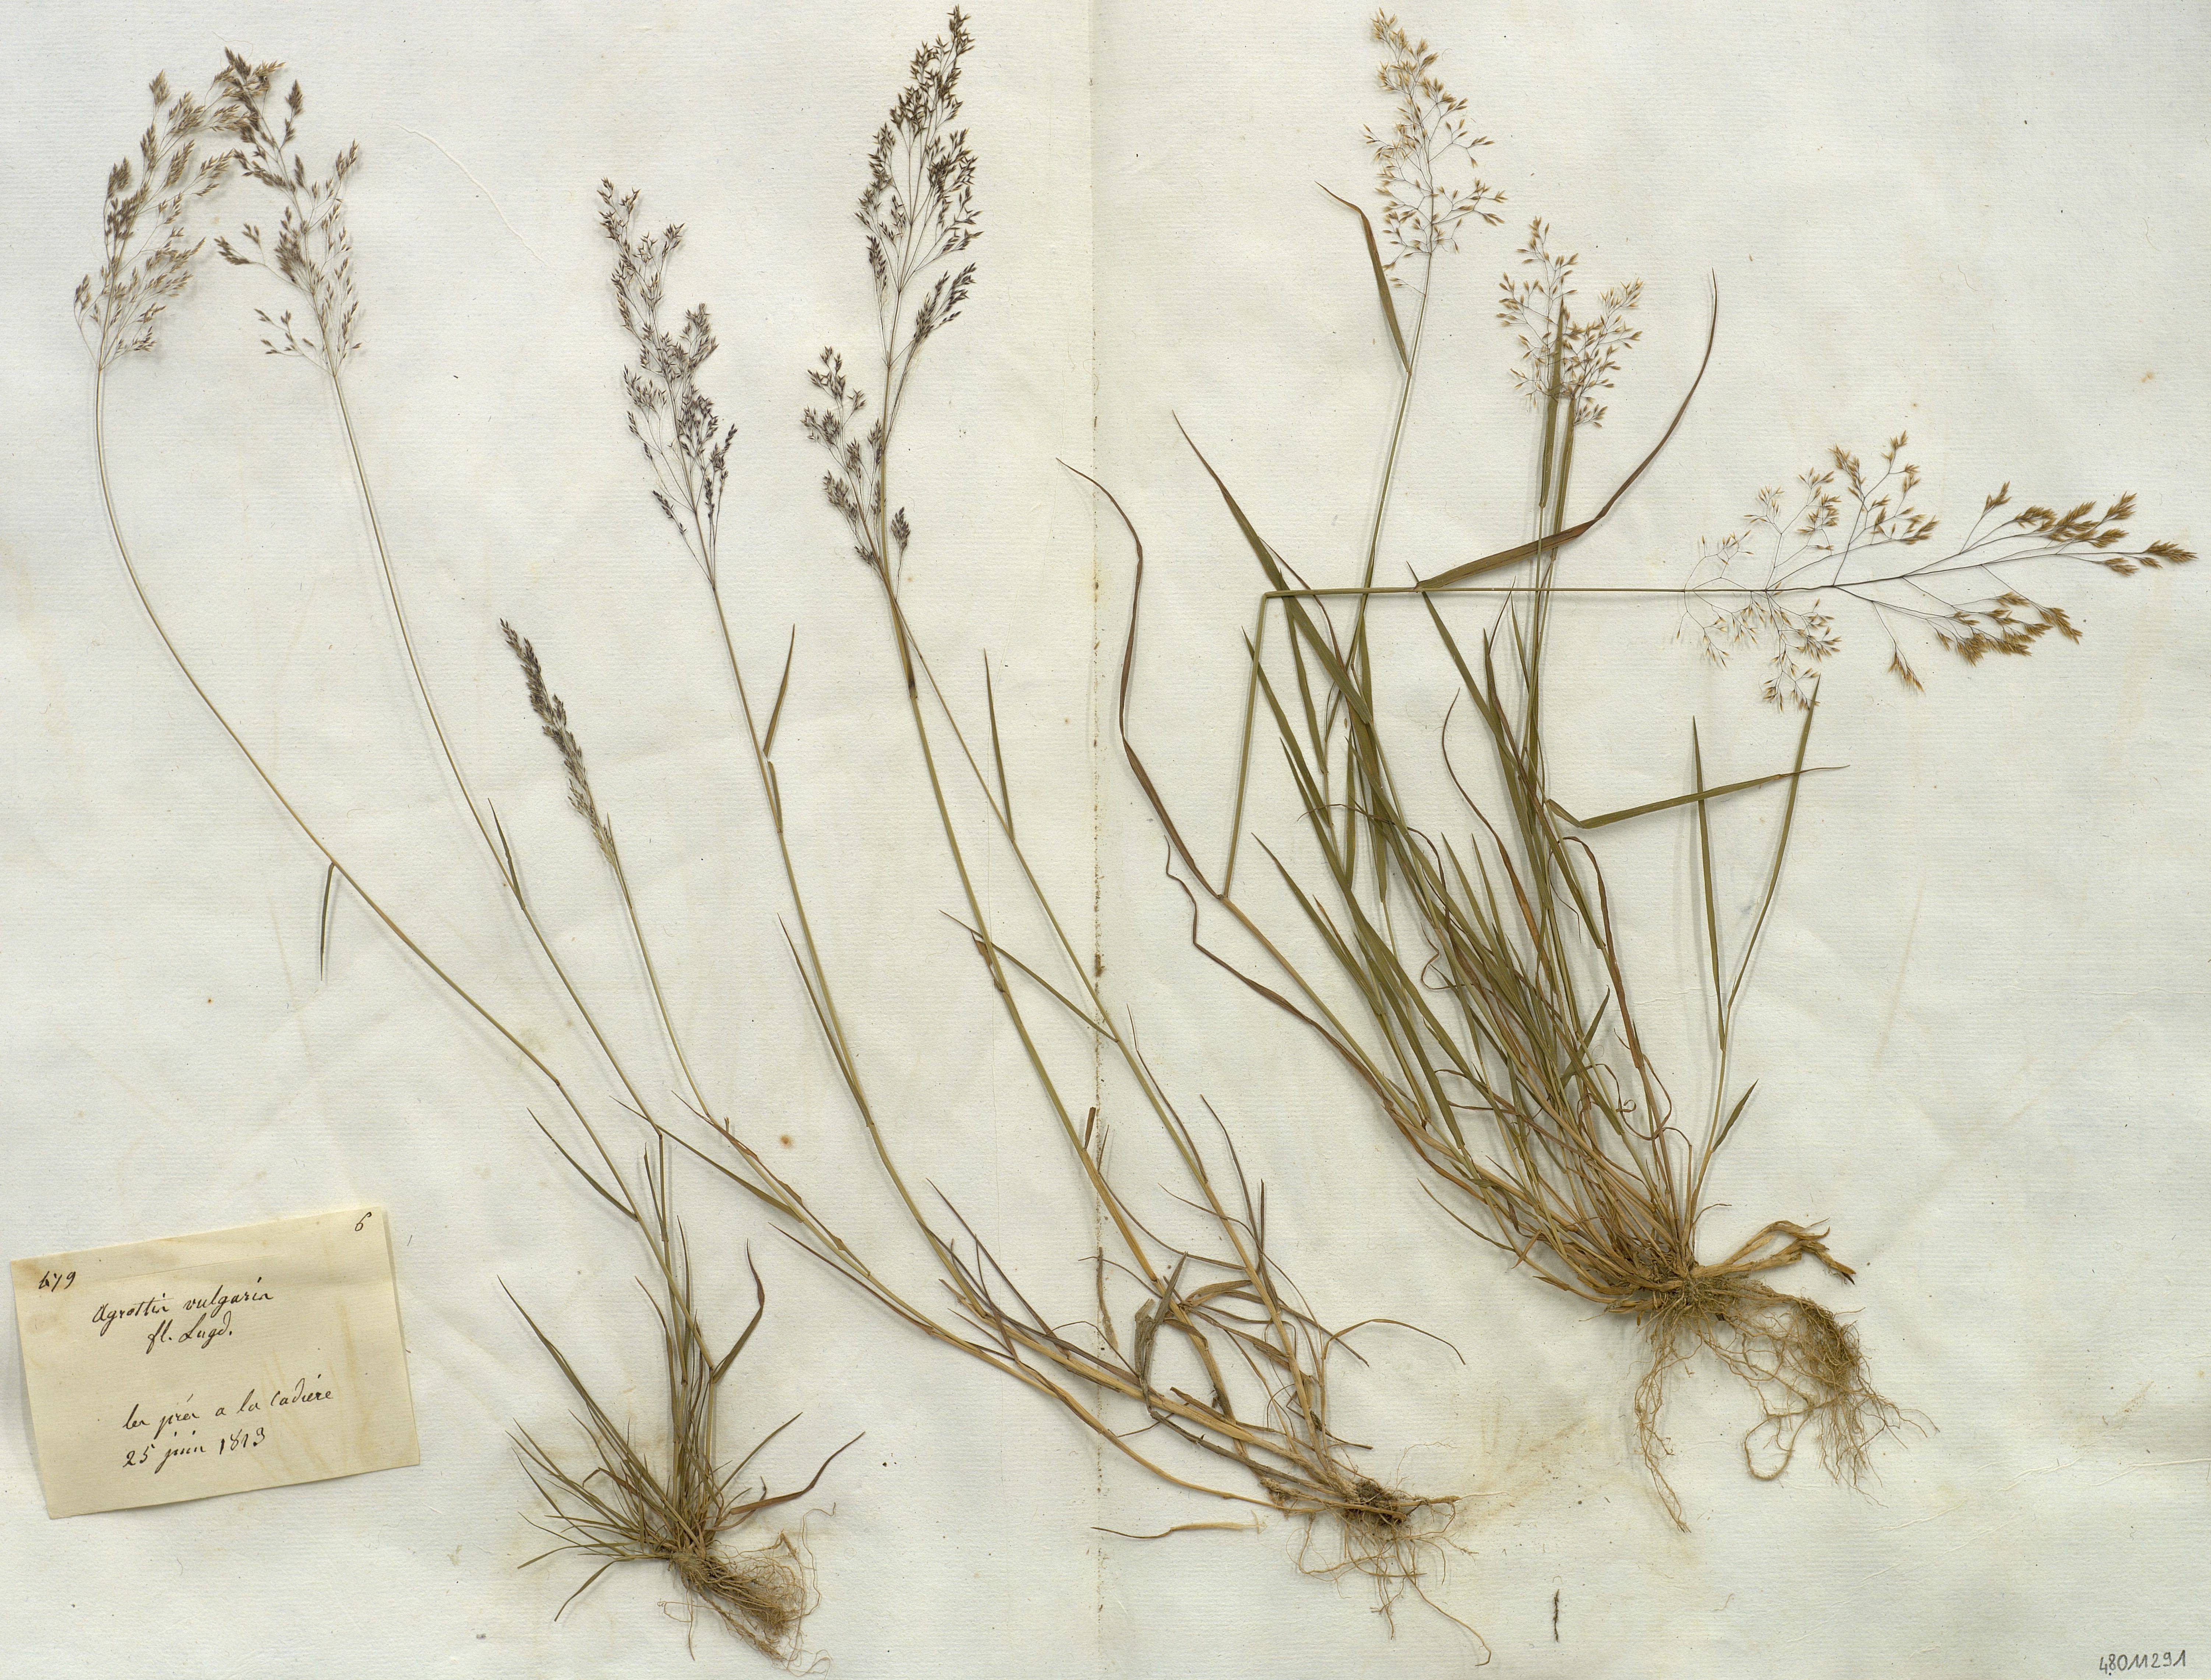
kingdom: Plantae
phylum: Tracheophyta
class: Liliopsida
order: Poales
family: Poaceae
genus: Agrostis
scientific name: Agrostis capillaris
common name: Colonial bentgrass
